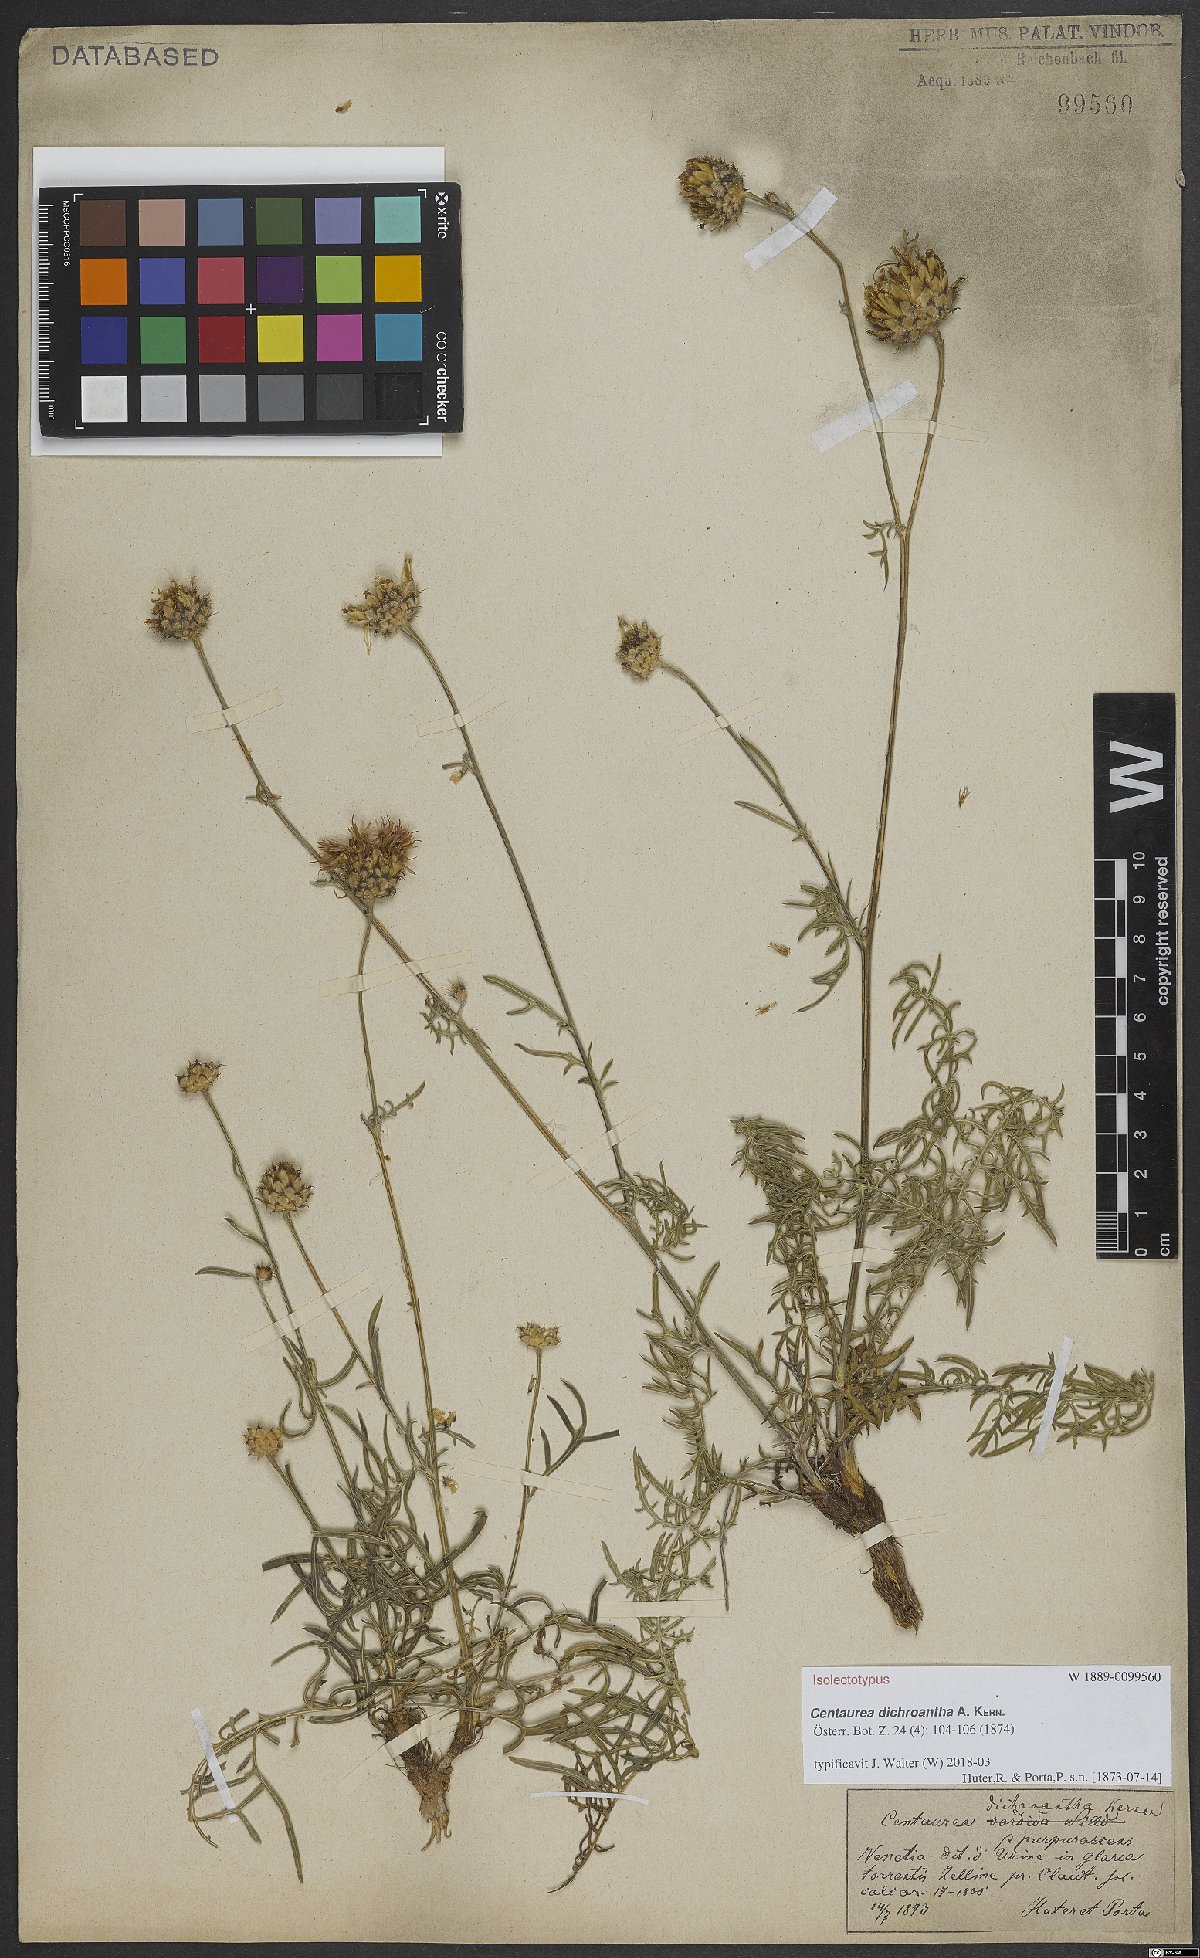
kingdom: Plantae
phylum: Tracheophyta
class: Magnoliopsida
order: Asterales
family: Asteraceae
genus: Centaurea
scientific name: Centaurea dichroantha
